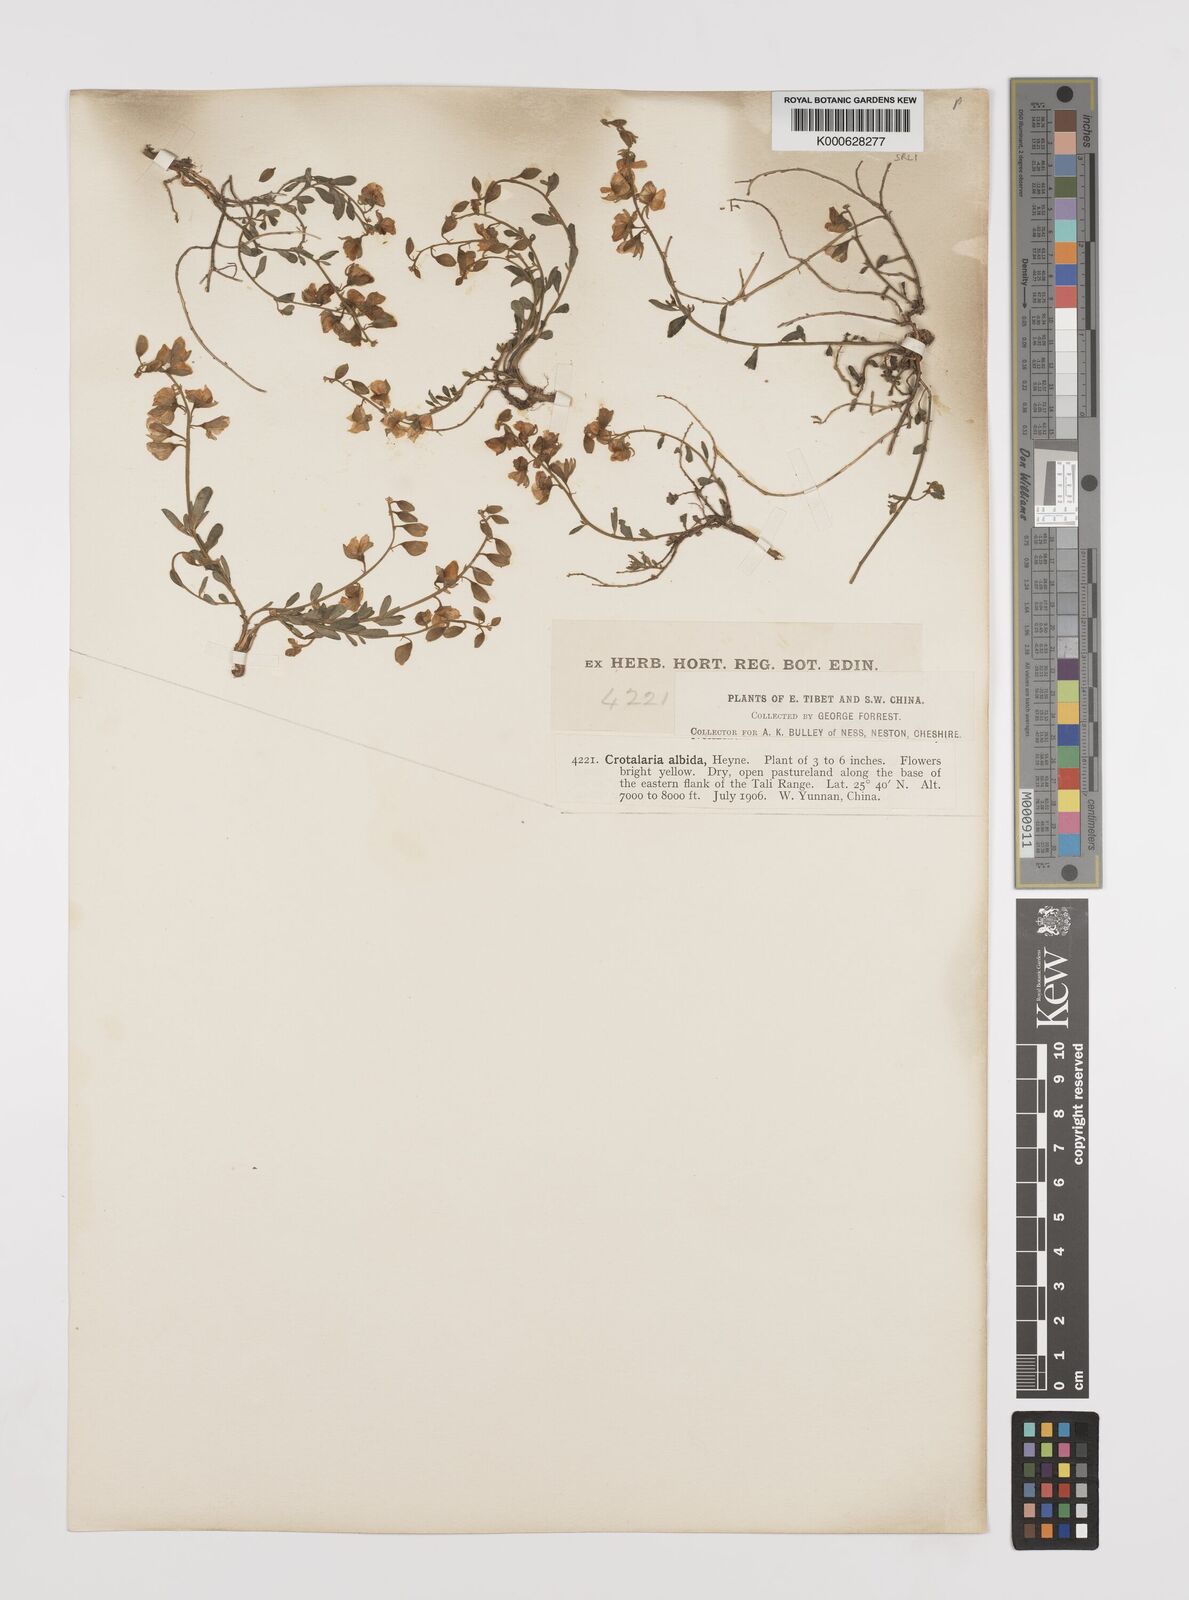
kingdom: Plantae
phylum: Tracheophyta
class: Magnoliopsida
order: Fabales
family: Fabaceae
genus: Crotalaria
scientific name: Crotalaria albida
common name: Taiwan crotalaria
